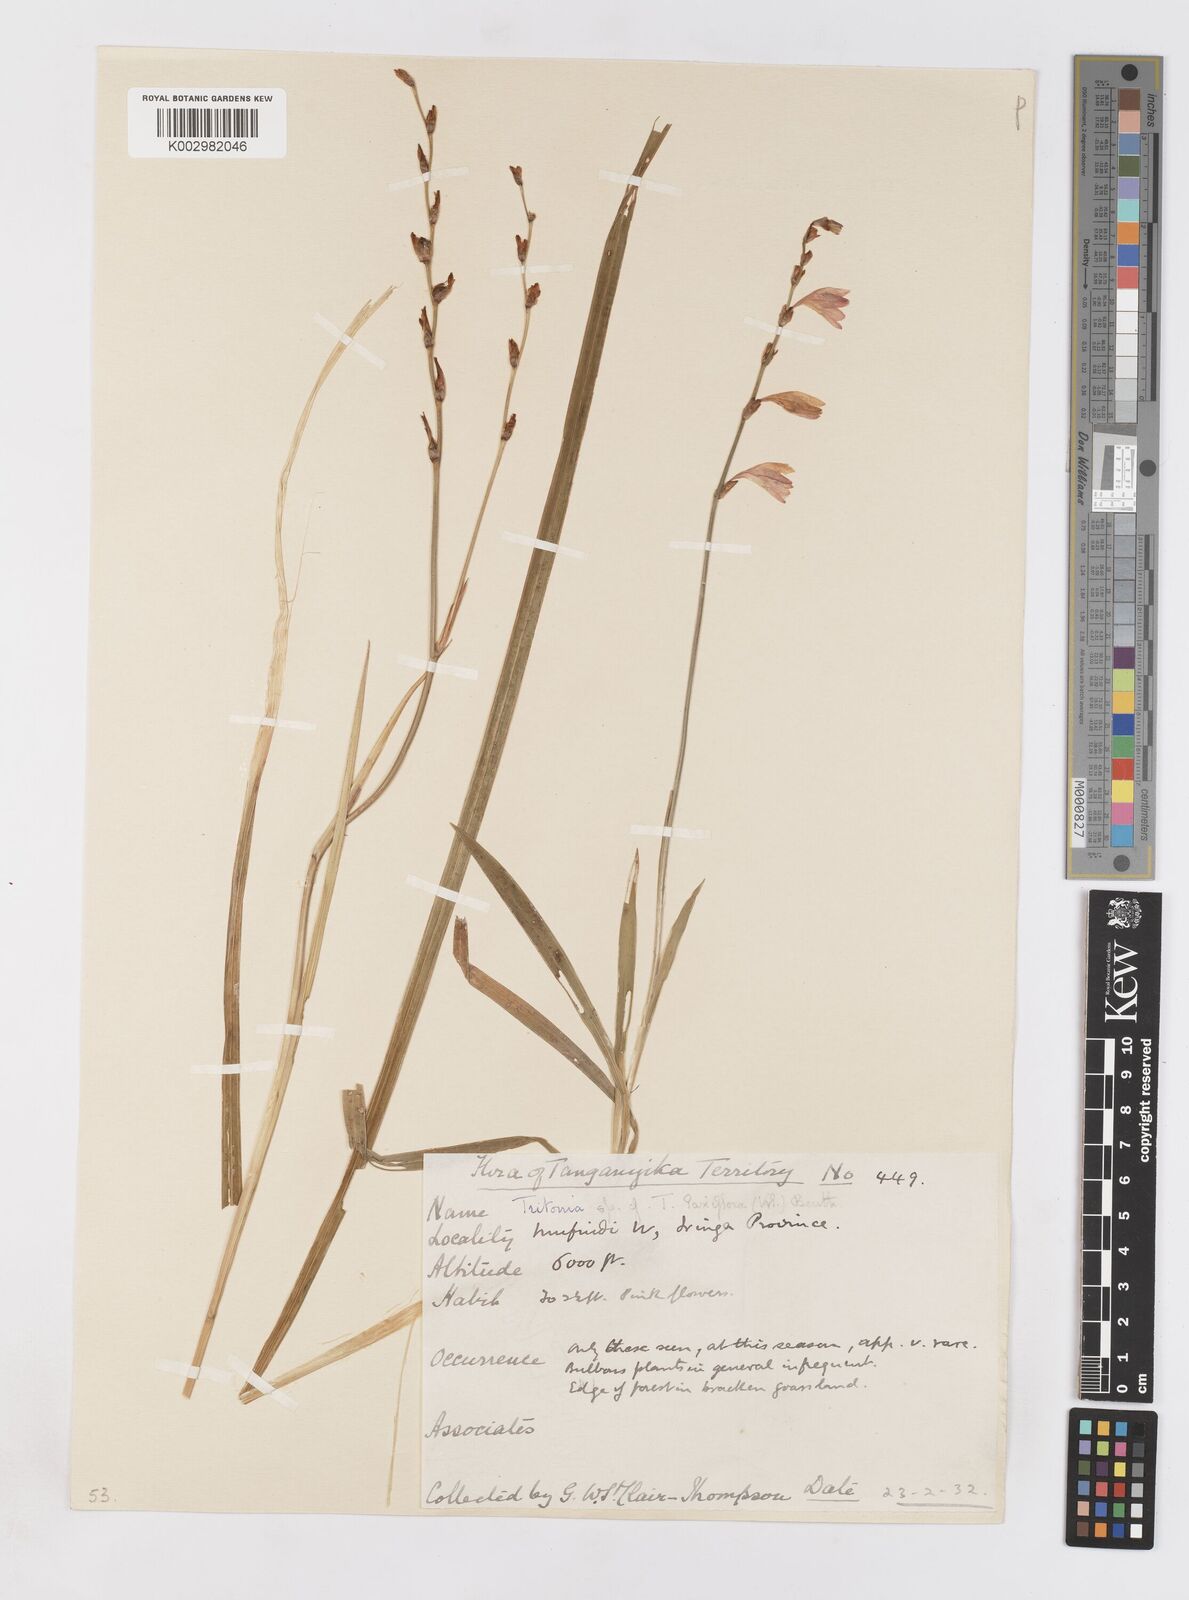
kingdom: Plantae
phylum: Tracheophyta
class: Liliopsida
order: Asparagales
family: Iridaceae
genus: Tritonia
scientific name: Tritonia laxifolia
